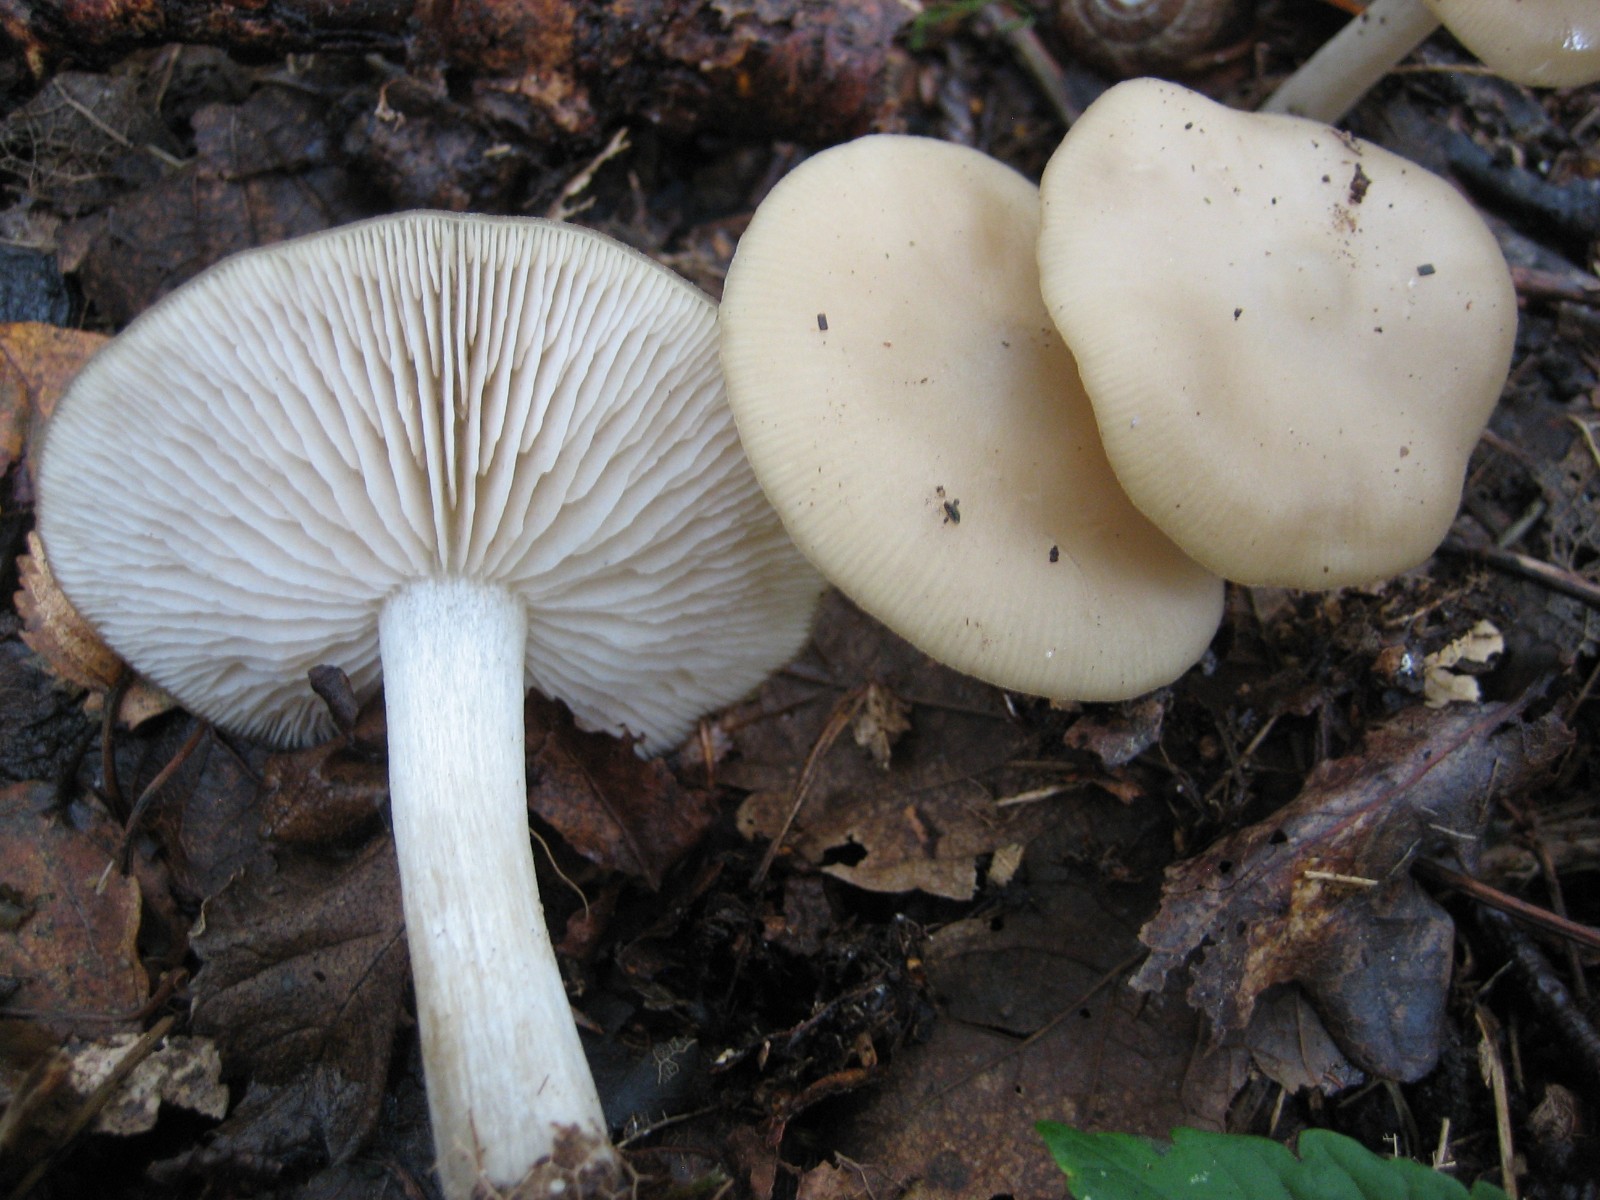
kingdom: Fungi
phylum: Basidiomycota
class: Agaricomycetes
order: Agaricales
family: Entolomataceae
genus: Entoloma
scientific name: Entoloma
